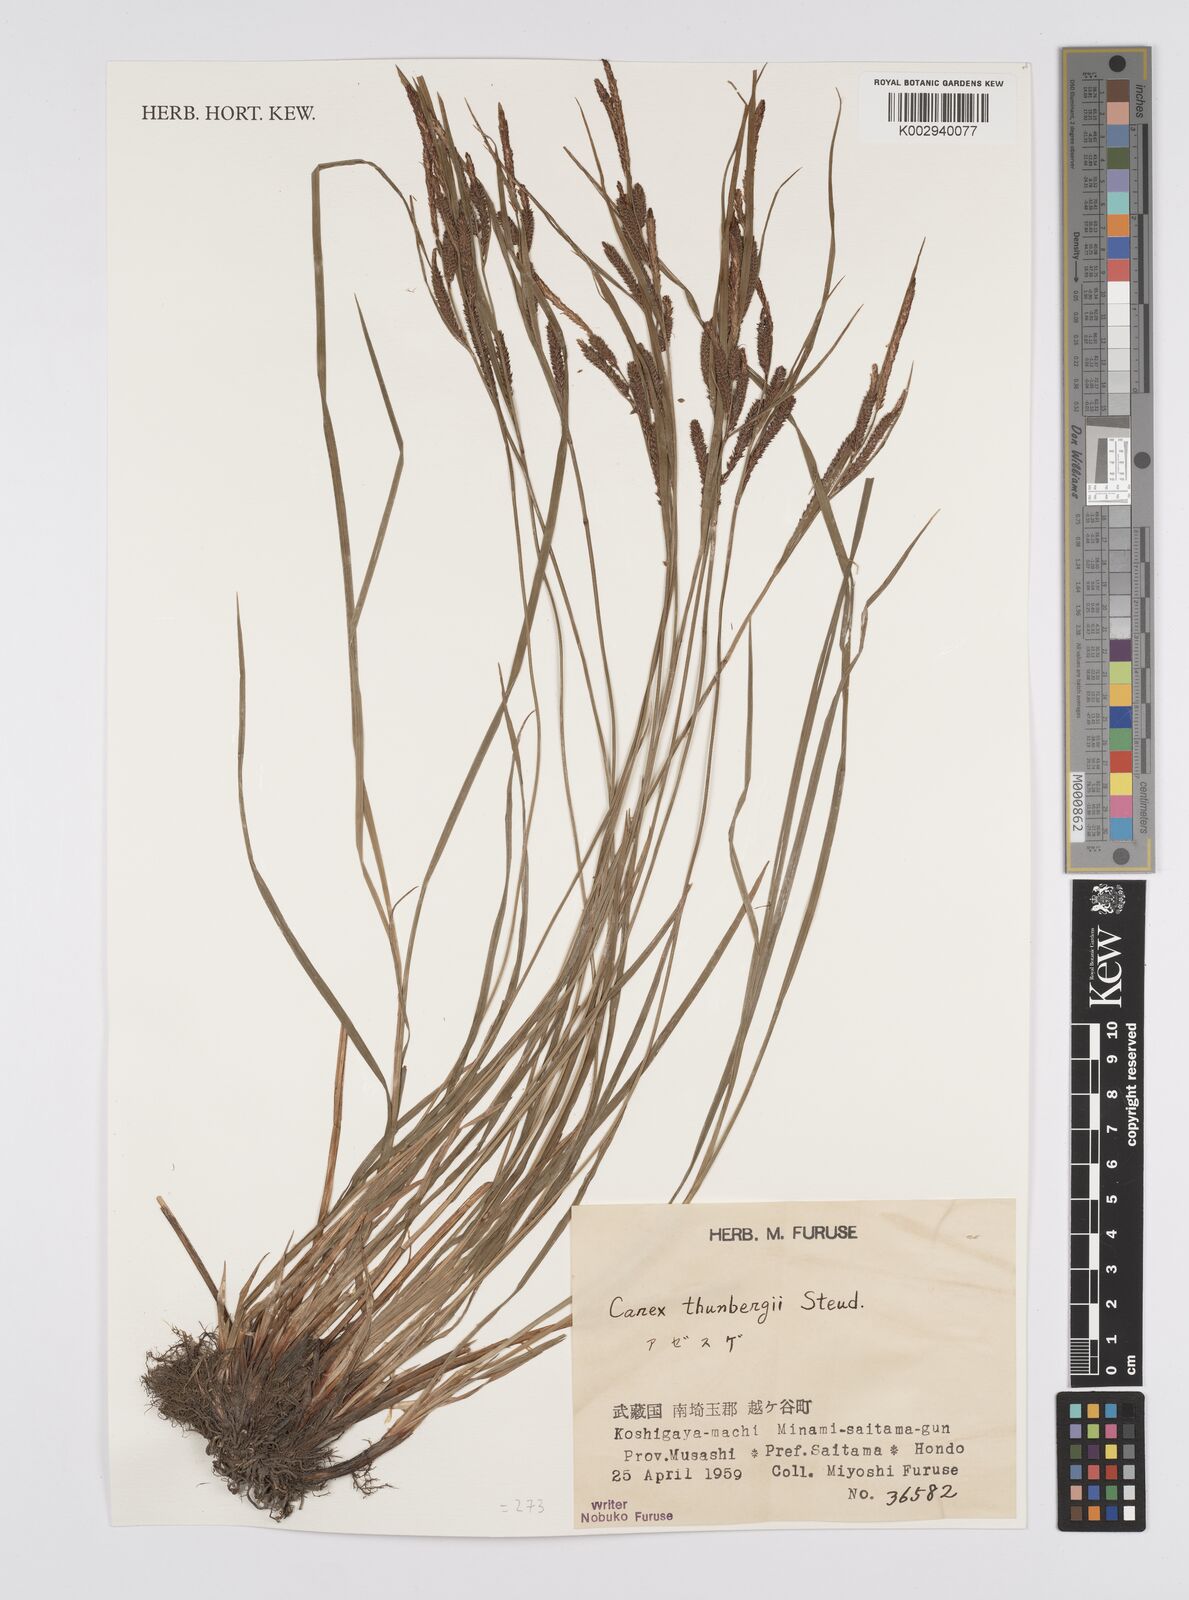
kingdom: Plantae
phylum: Tracheophyta
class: Liliopsida
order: Poales
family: Cyperaceae
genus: Carex
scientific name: Carex thunbergii
